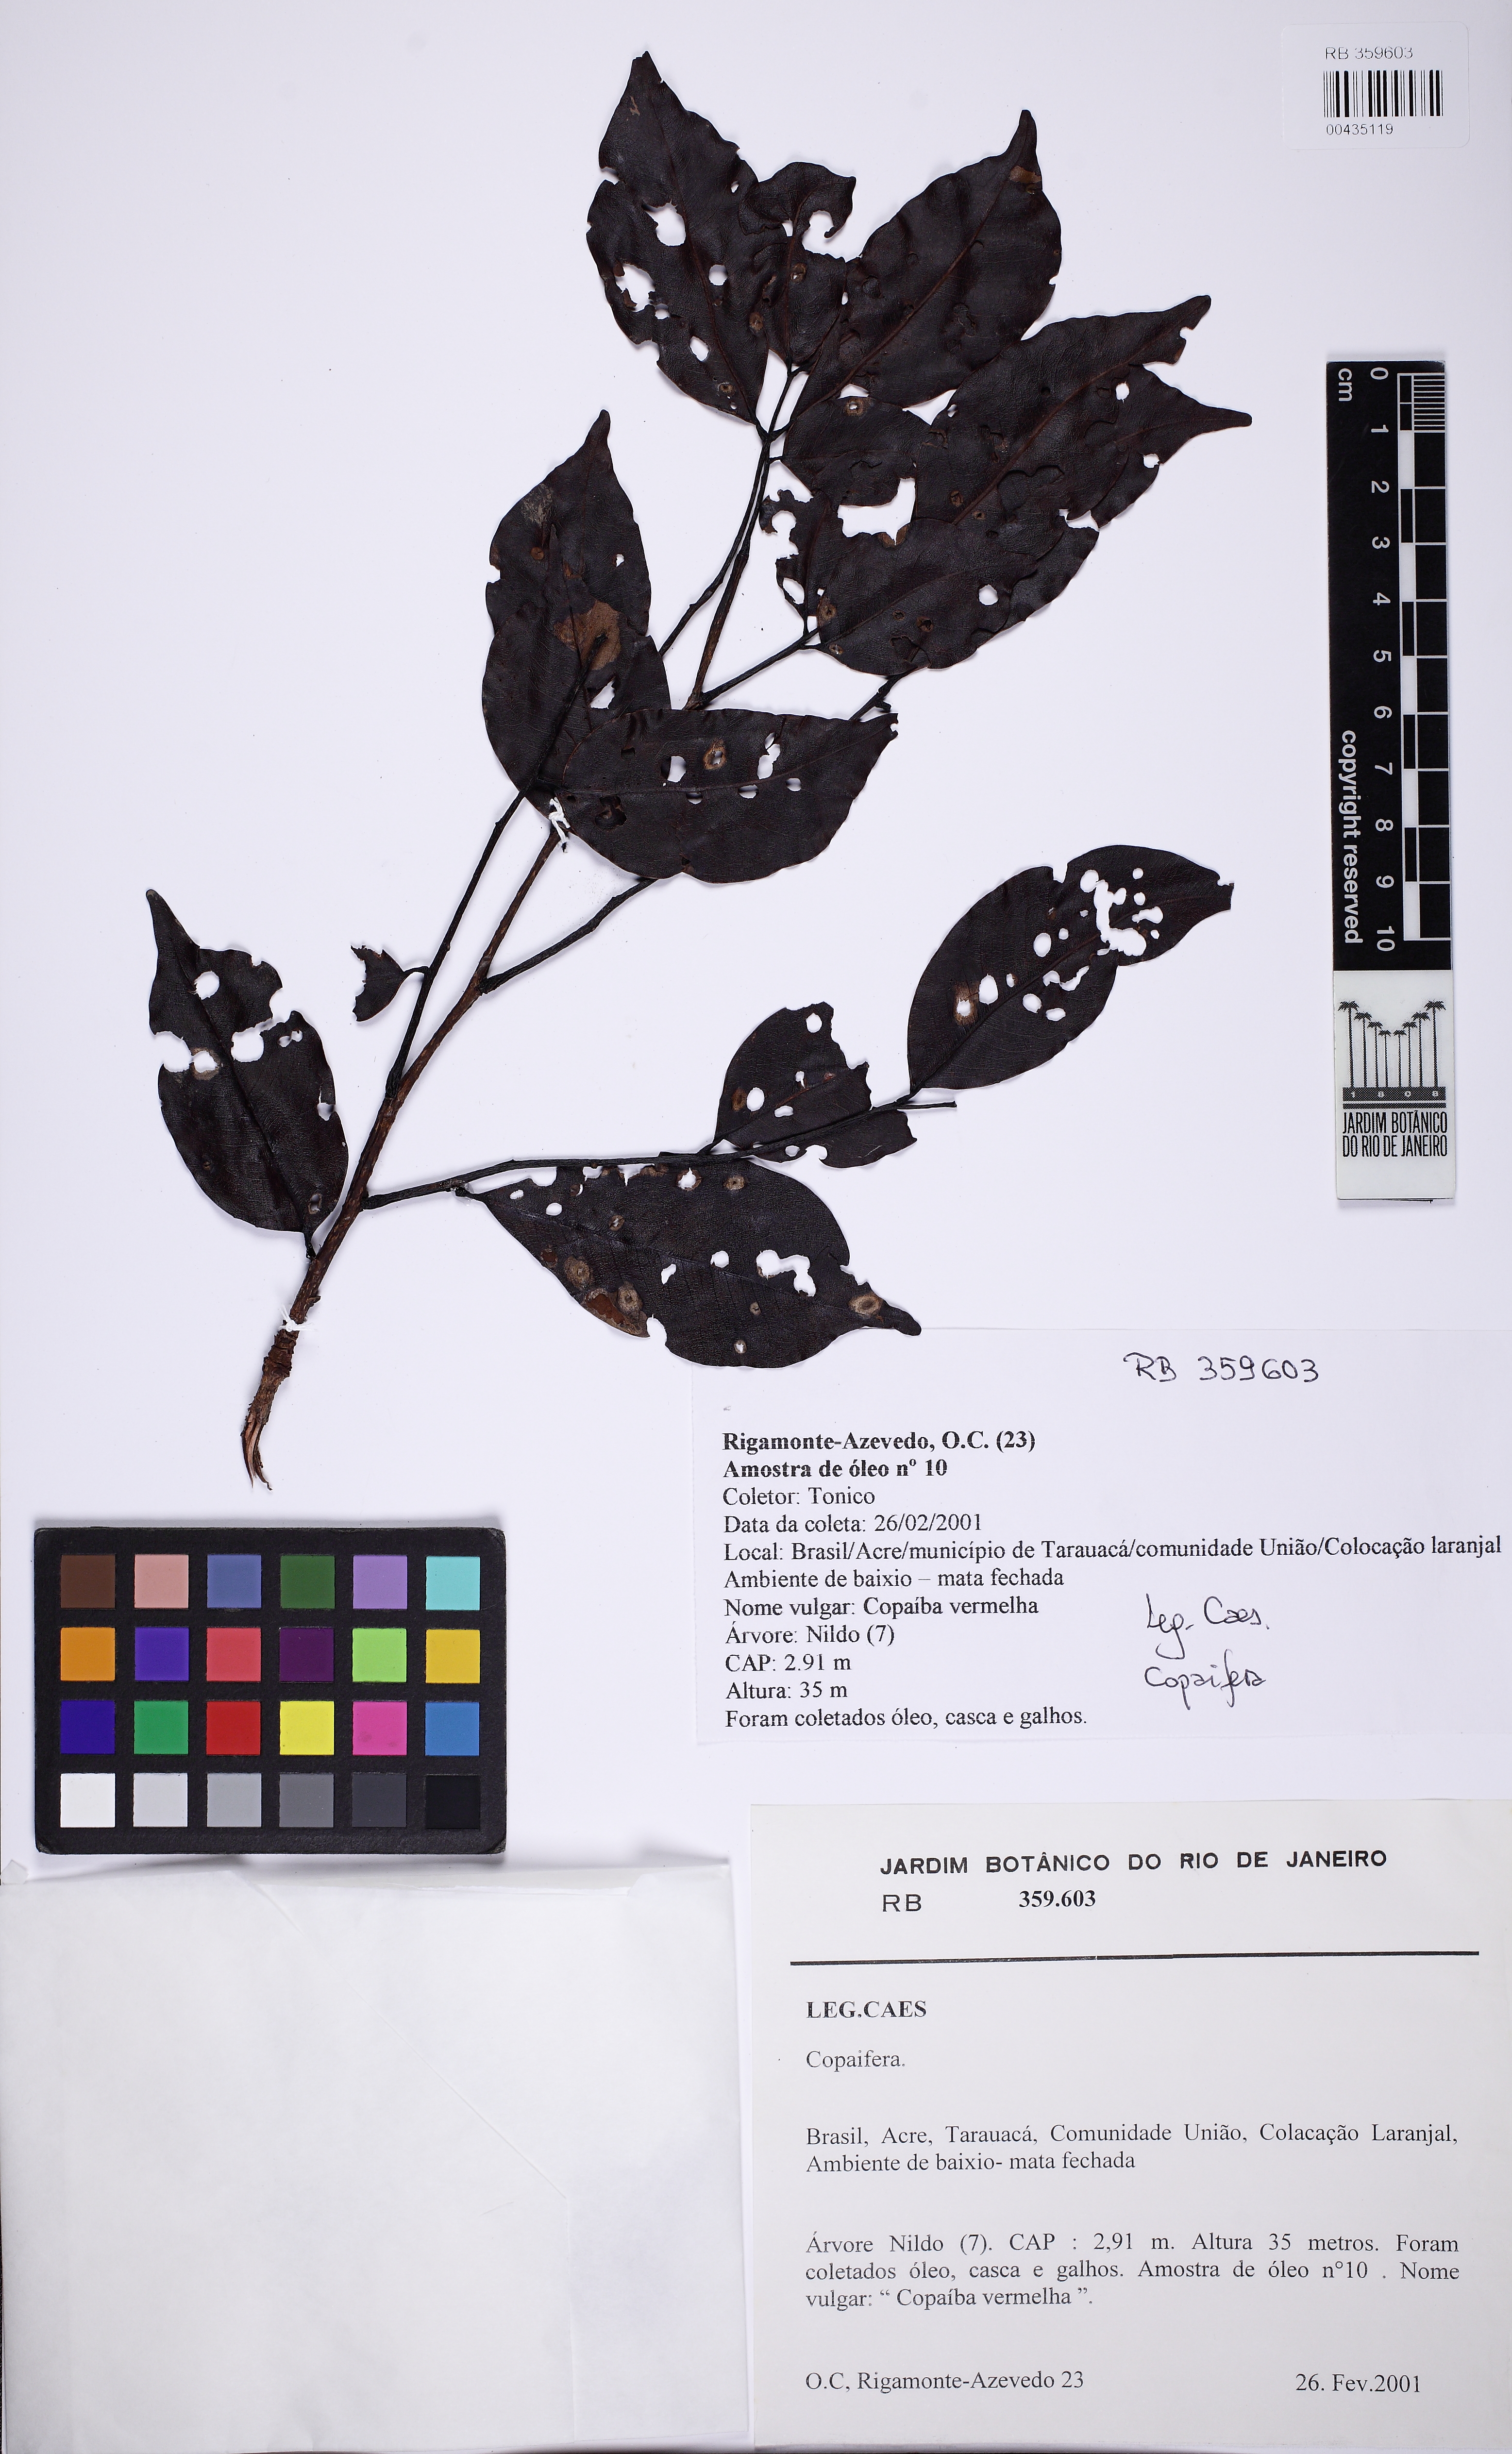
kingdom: Plantae
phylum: Tracheophyta
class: Magnoliopsida
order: Fabales
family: Fabaceae
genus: Copaifera
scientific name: Copaifera
